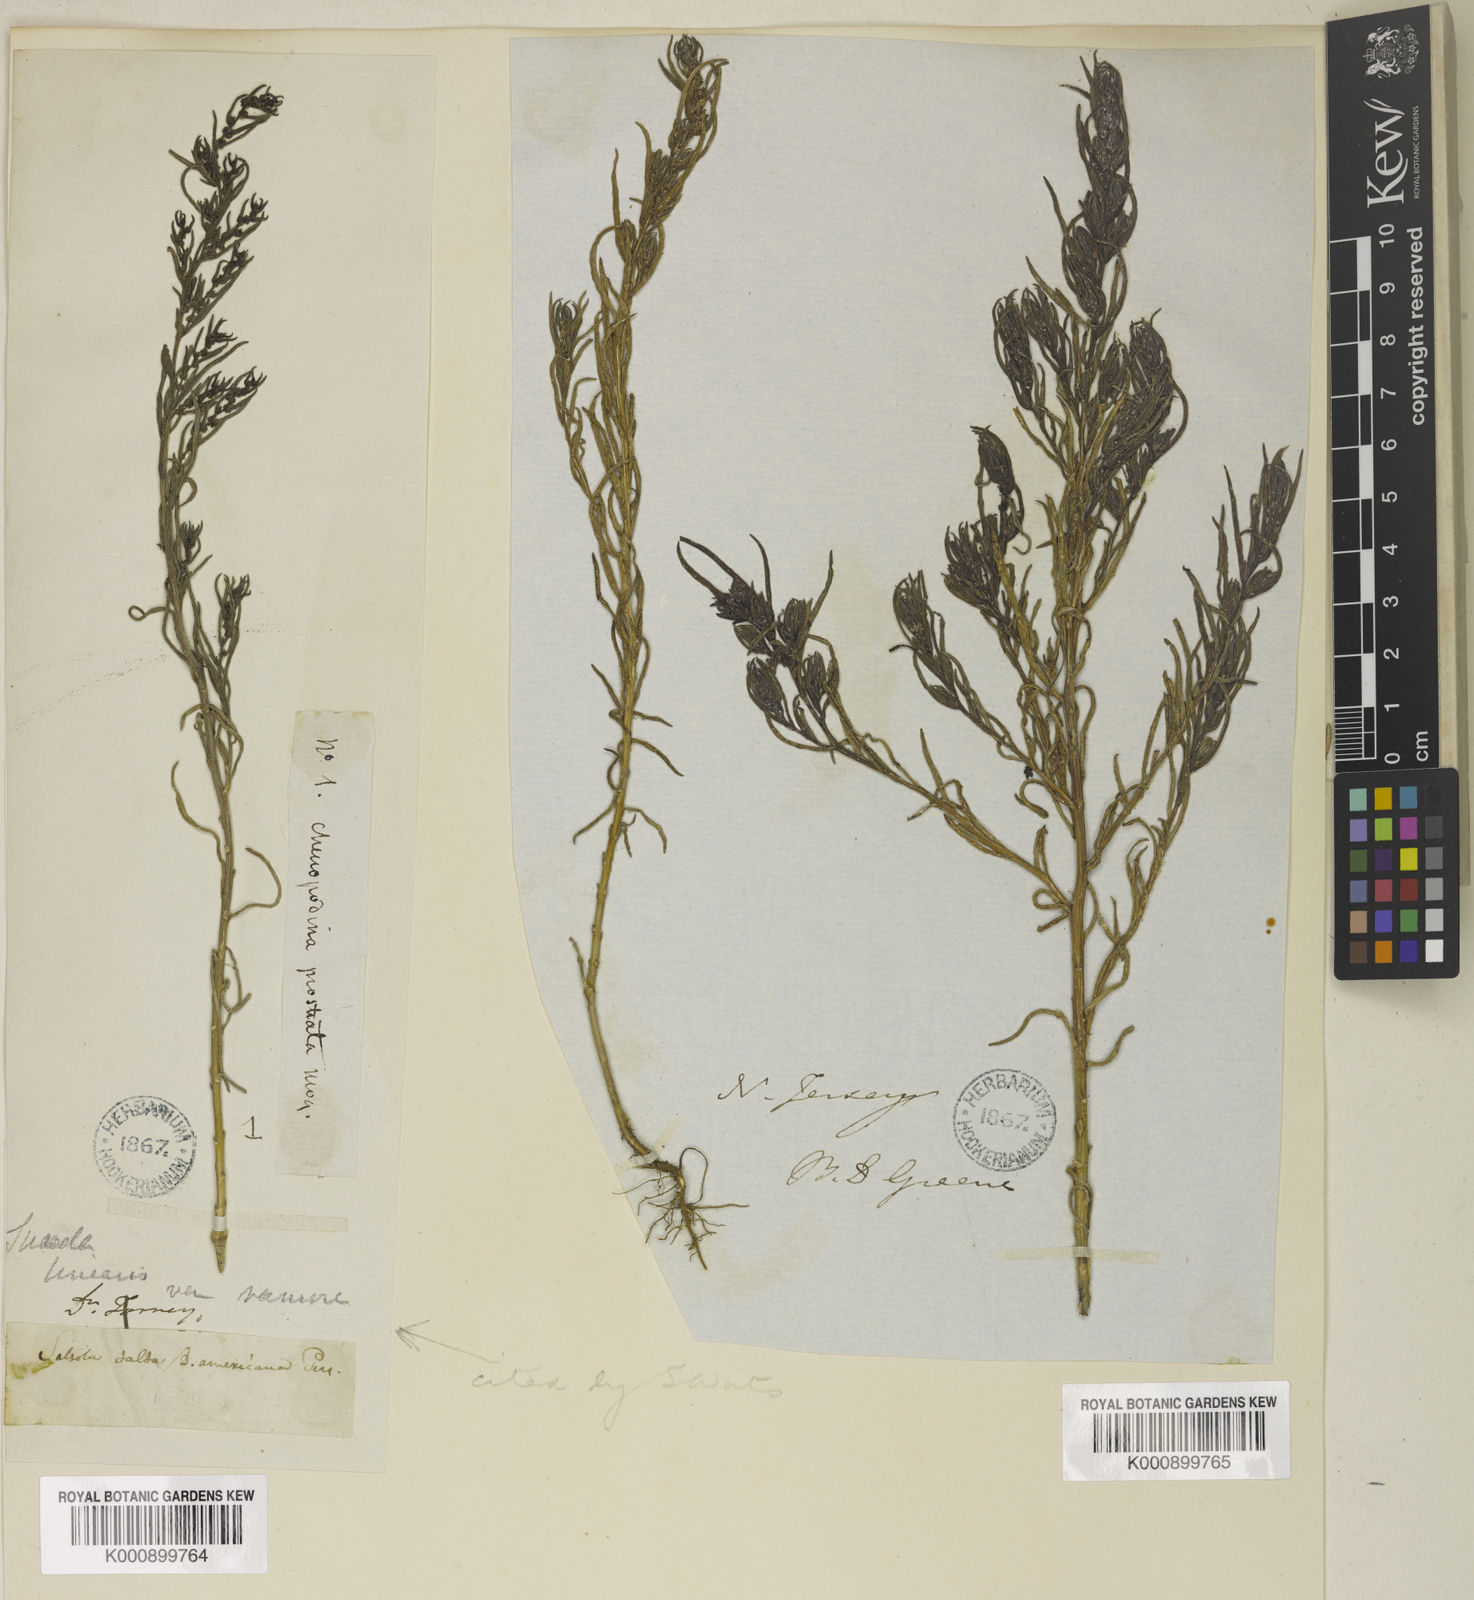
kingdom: Plantae
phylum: Tracheophyta
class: Magnoliopsida
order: Caryophyllales
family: Amaranthaceae
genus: Suaeda
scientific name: Suaeda linearis
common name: Annual seepweed
